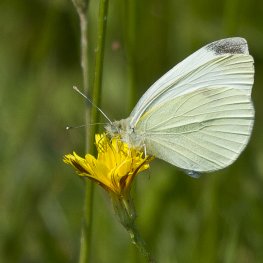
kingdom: Animalia
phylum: Arthropoda
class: Insecta
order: Lepidoptera
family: Pieridae
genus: Pieris
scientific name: Pieris rapae
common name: Cabbage White
